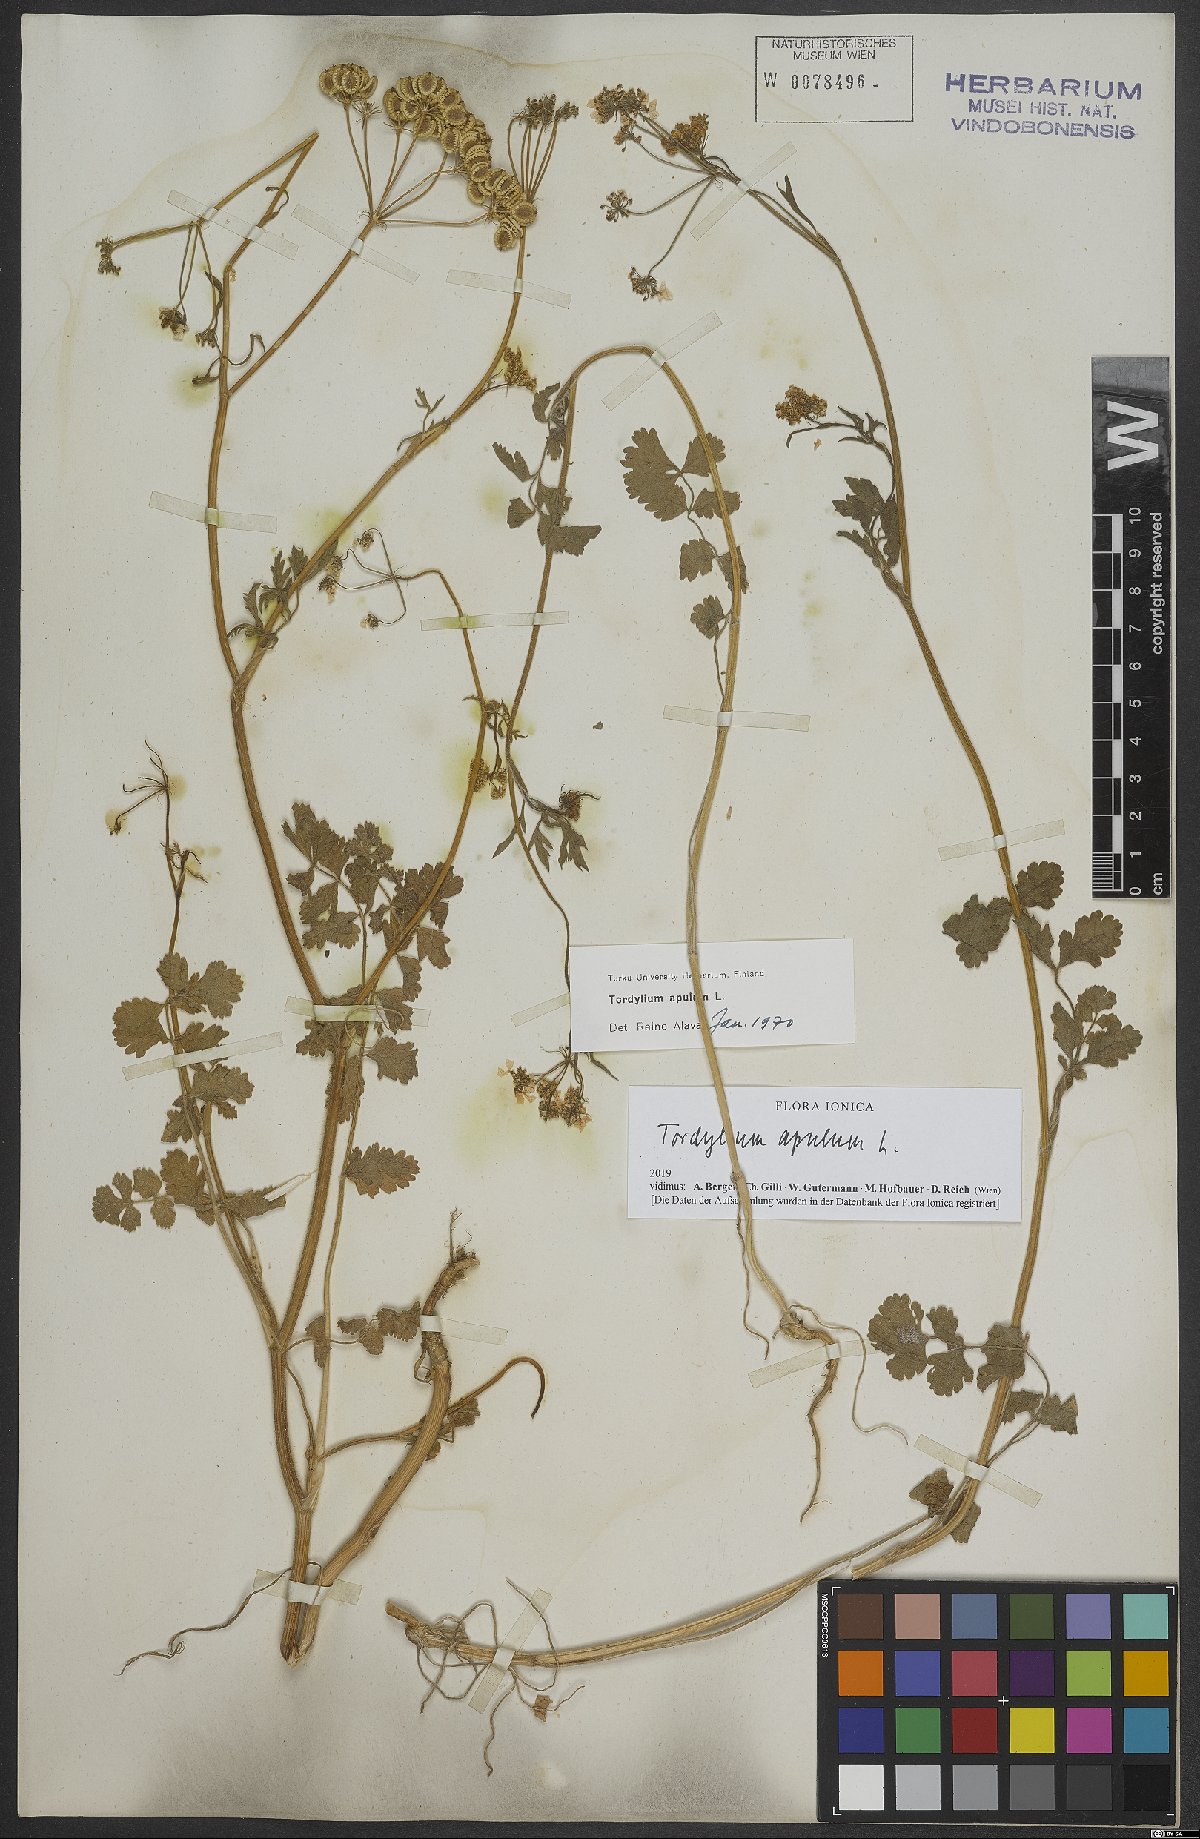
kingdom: Plantae
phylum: Tracheophyta
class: Magnoliopsida
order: Apiales
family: Apiaceae
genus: Tordylium
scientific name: Tordylium apulum
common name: Mediterranean hartwort
